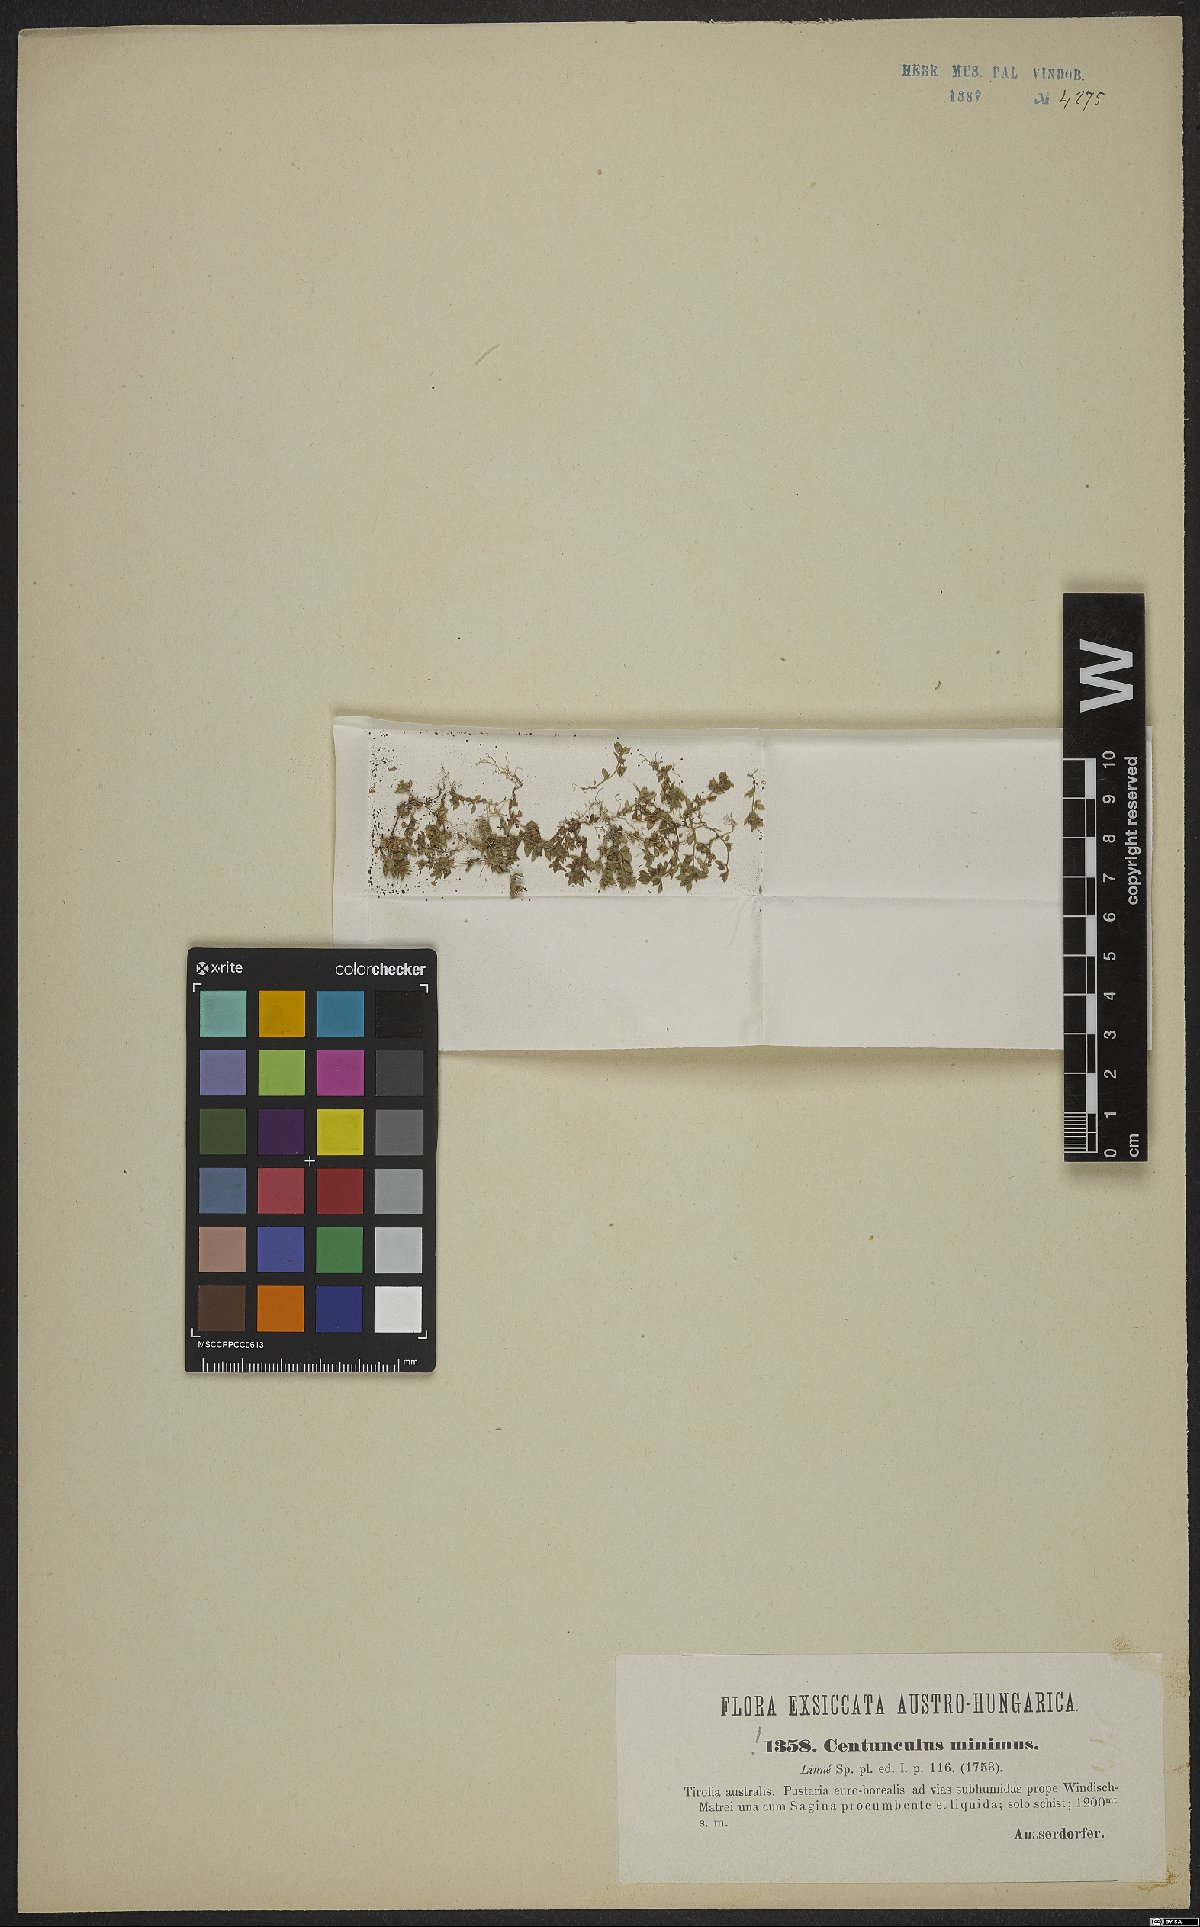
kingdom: Plantae
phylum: Tracheophyta
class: Magnoliopsida
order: Ericales
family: Primulaceae
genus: Lysimachia
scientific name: Lysimachia minima
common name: Chaffweed
